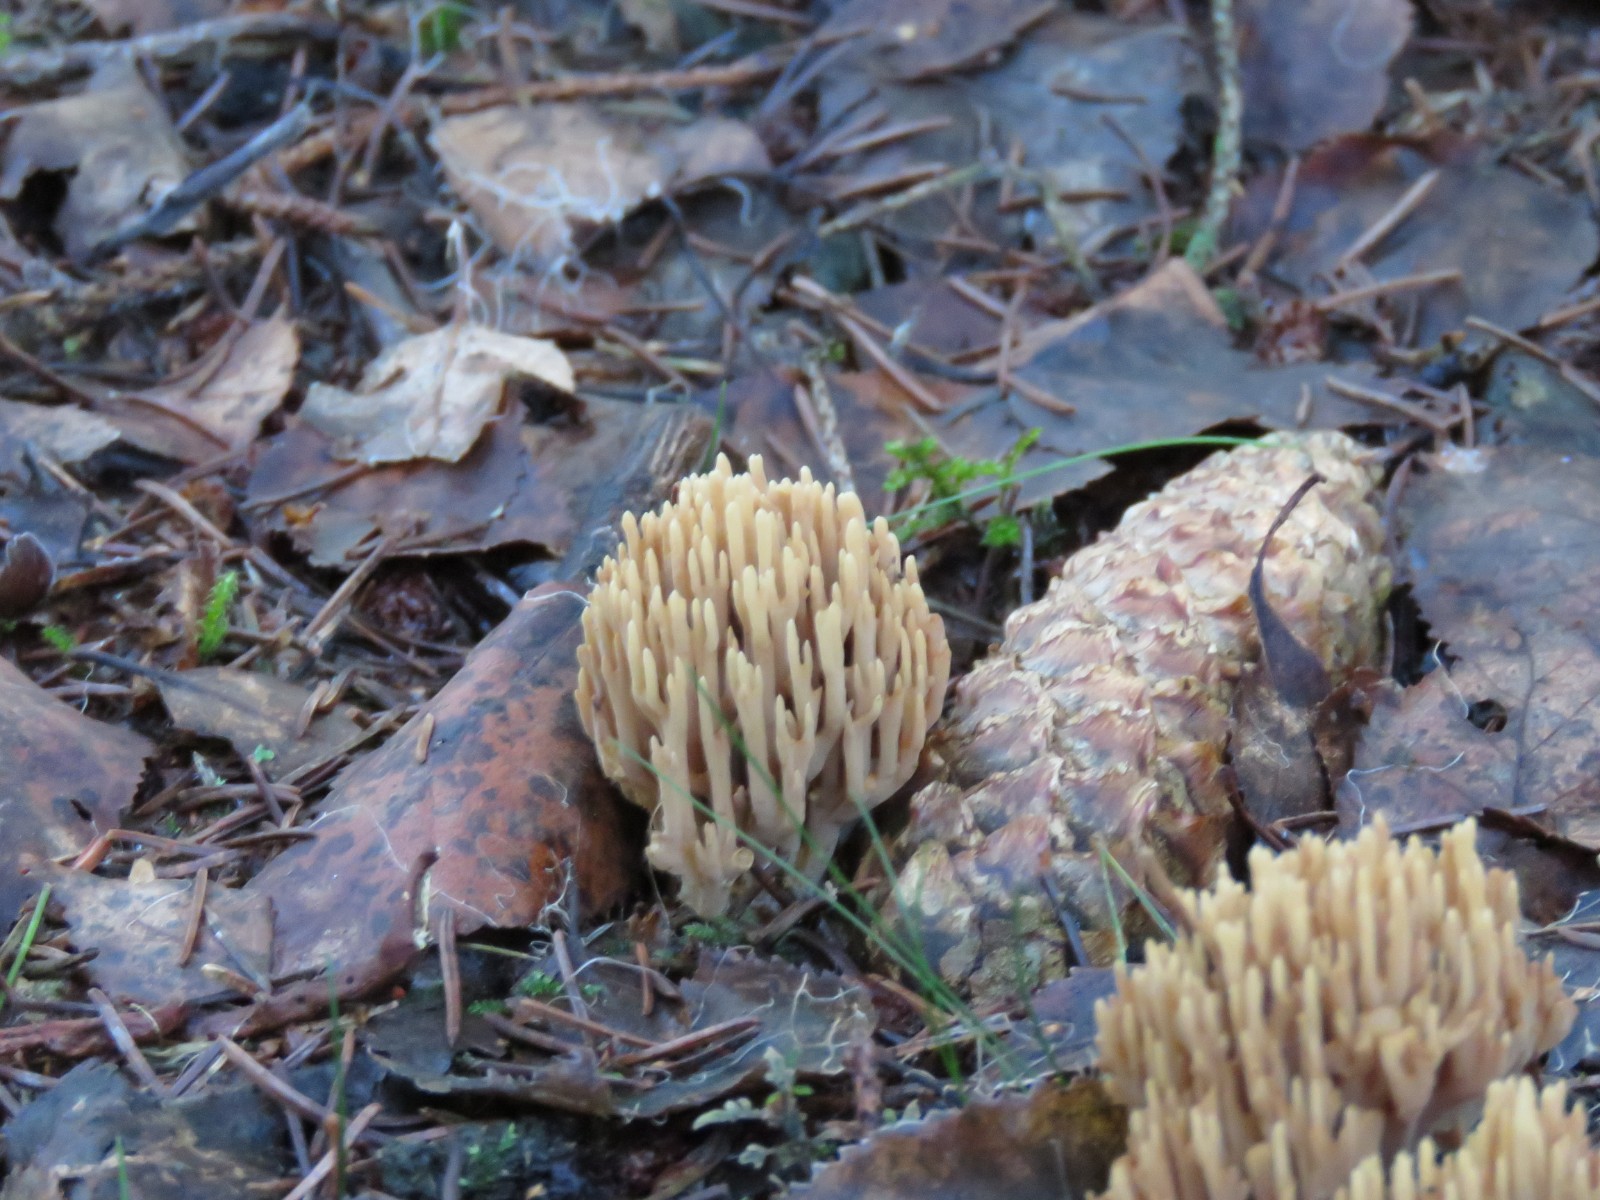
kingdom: Fungi
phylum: Basidiomycota
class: Agaricomycetes
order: Gomphales
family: Gomphaceae
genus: Phaeoclavulina
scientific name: Phaeoclavulina eumorpha
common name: gran-koralsvamp
